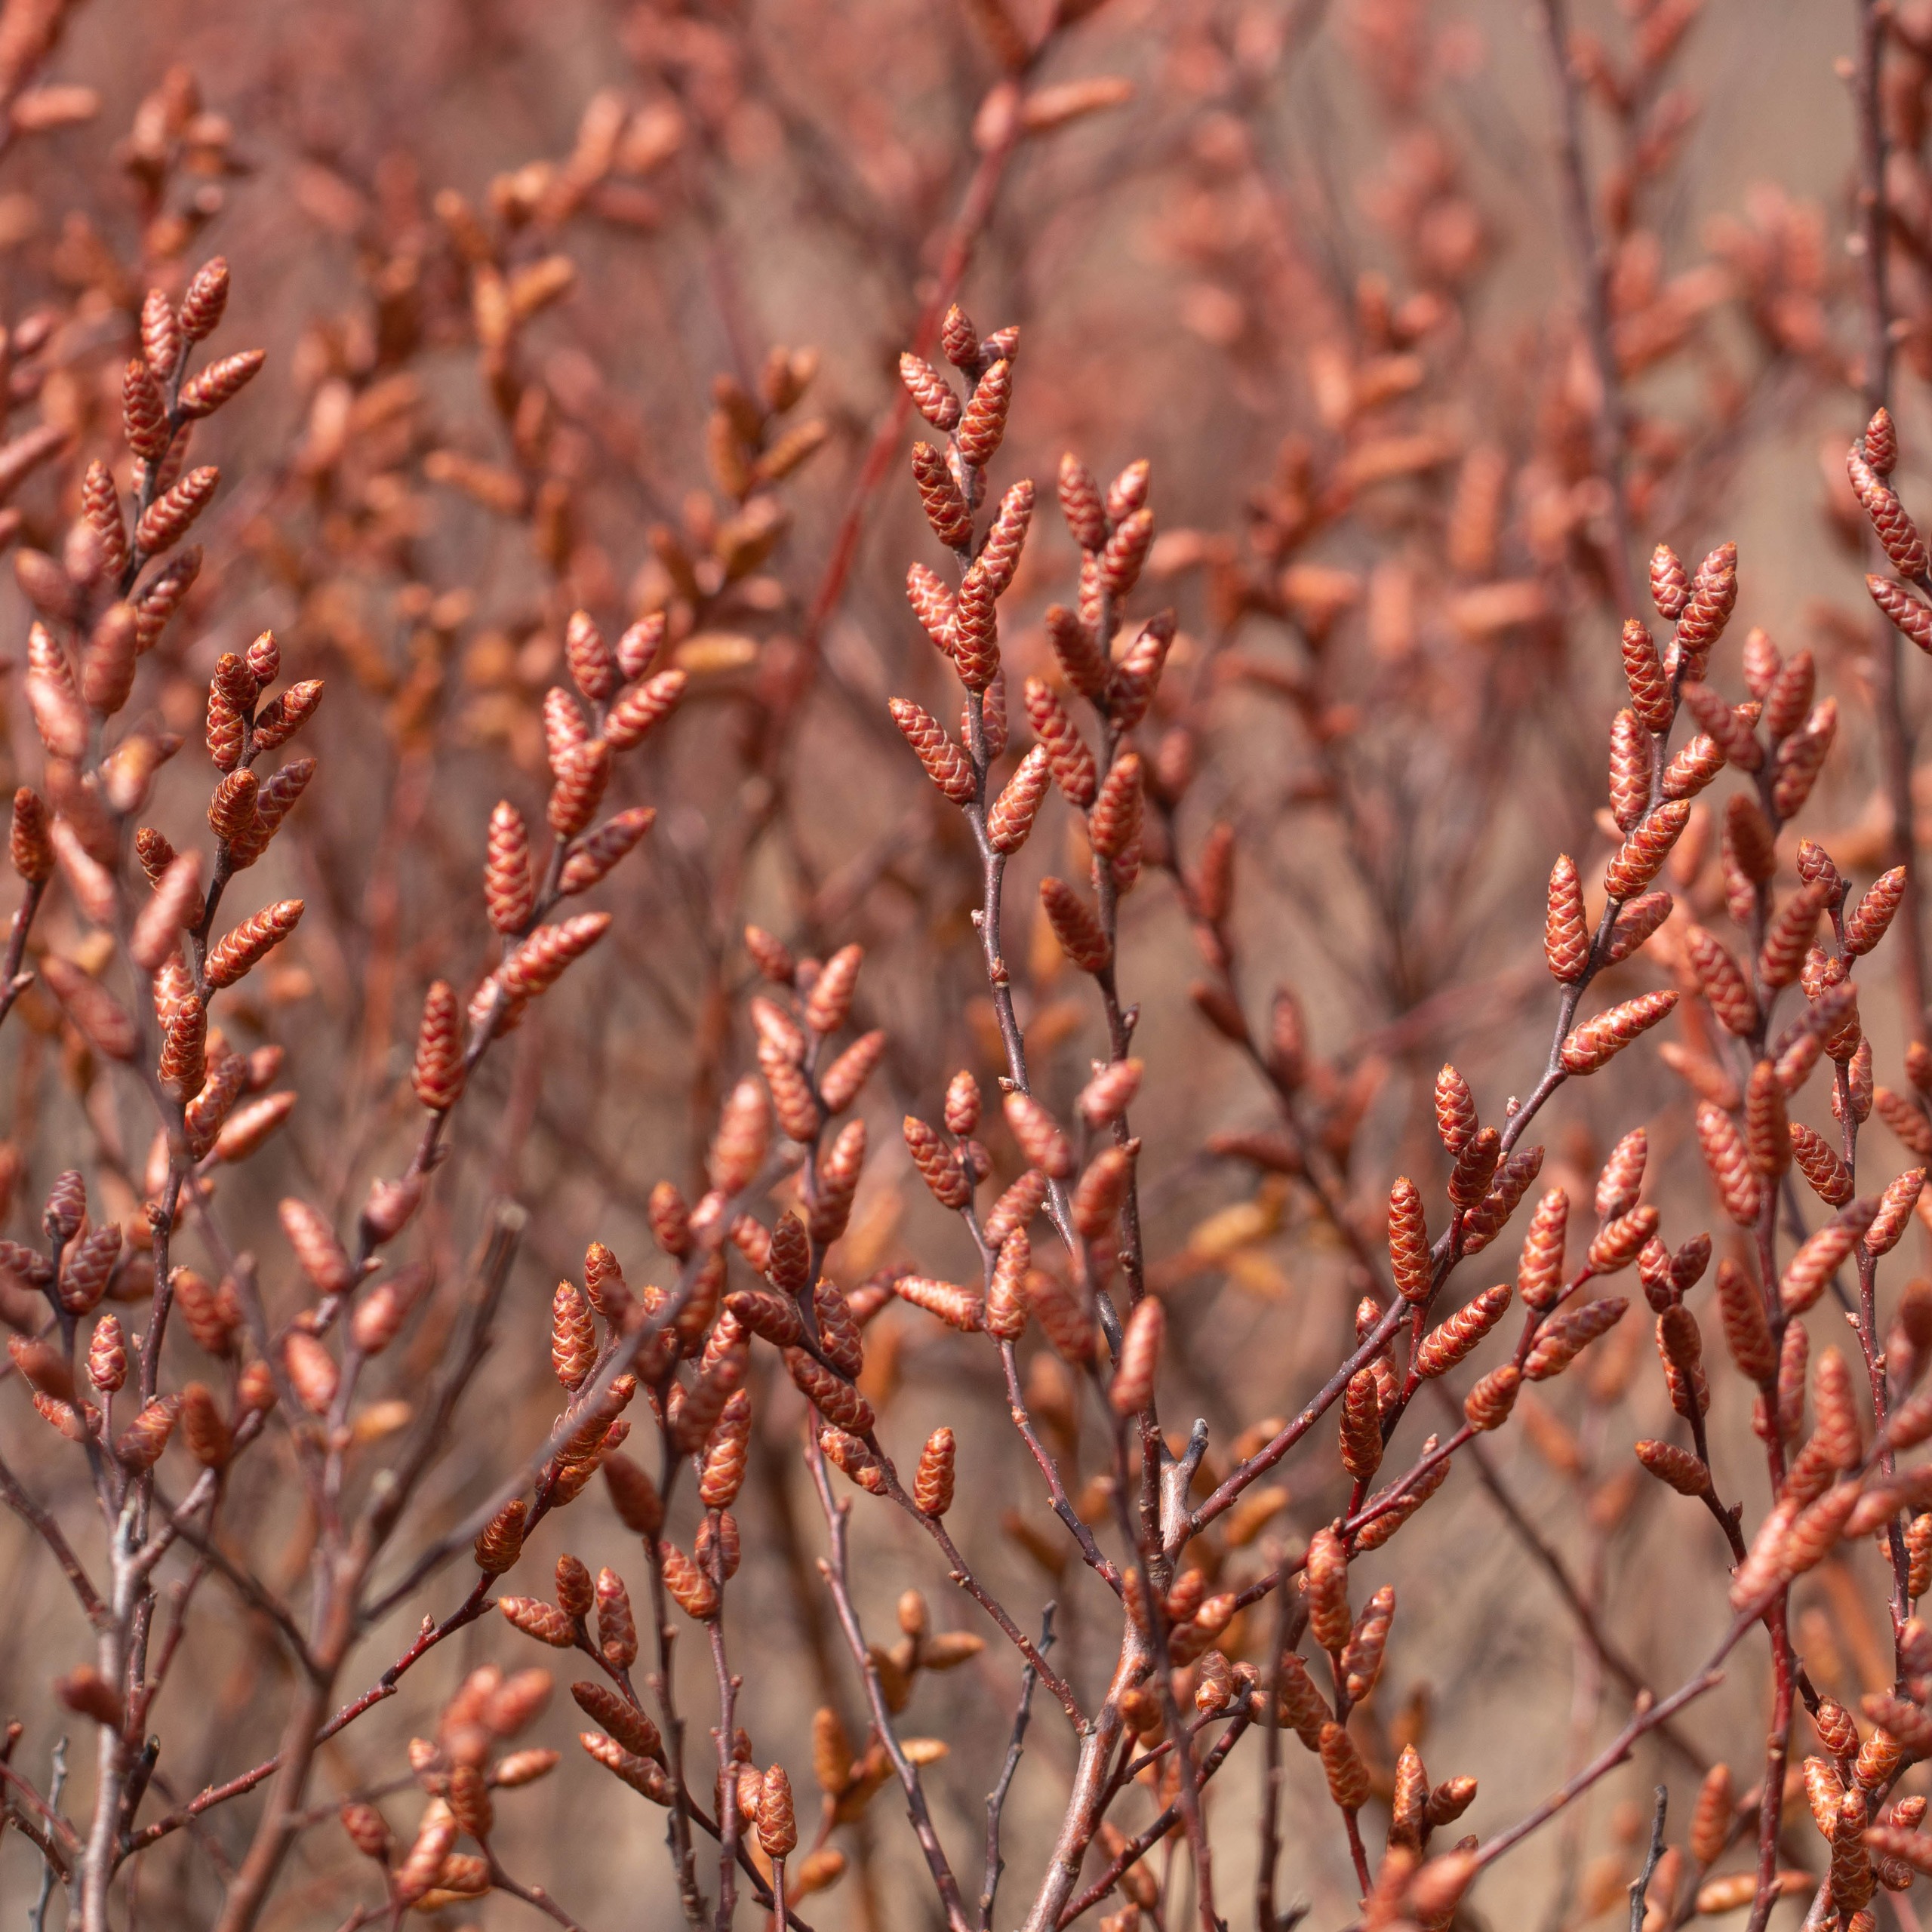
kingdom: Plantae
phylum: Tracheophyta
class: Magnoliopsida
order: Fagales
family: Myricaceae
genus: Myrica
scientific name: Myrica gale
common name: Pors
